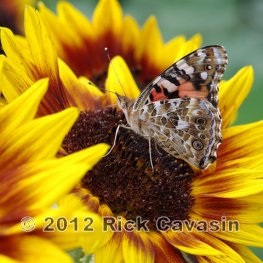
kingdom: Animalia
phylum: Arthropoda
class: Insecta
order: Lepidoptera
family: Nymphalidae
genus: Vanessa
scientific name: Vanessa cardui
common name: Painted Lady
